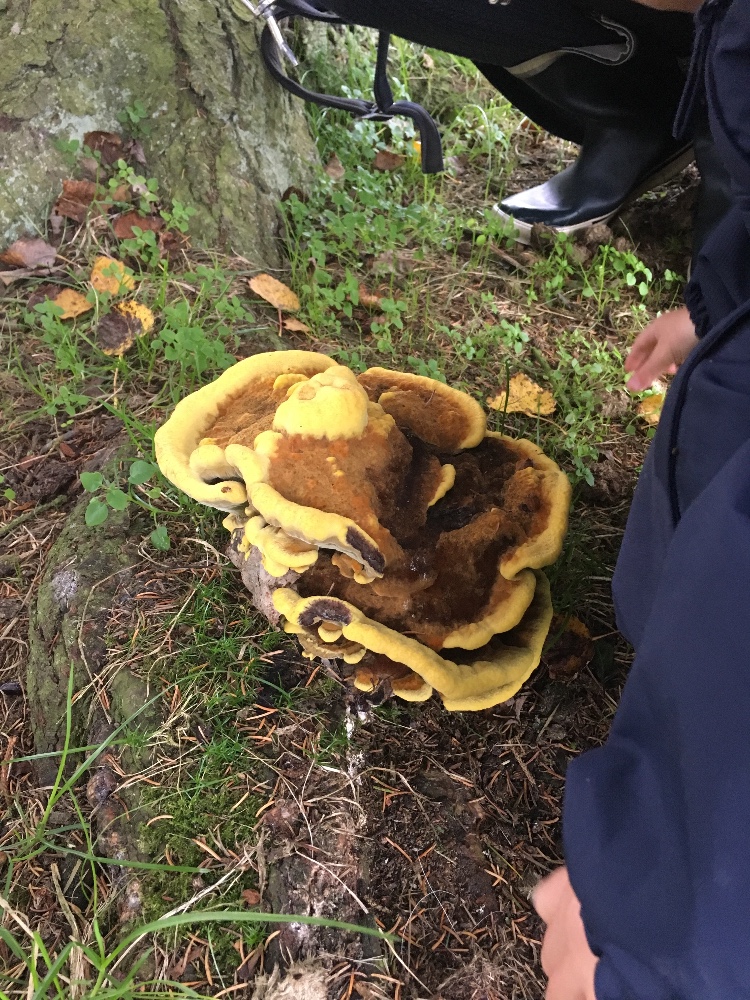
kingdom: Fungi
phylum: Basidiomycota
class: Agaricomycetes
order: Polyporales
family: Laetiporaceae
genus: Phaeolus
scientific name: Phaeolus schweinitzii
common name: brunporesvamp
